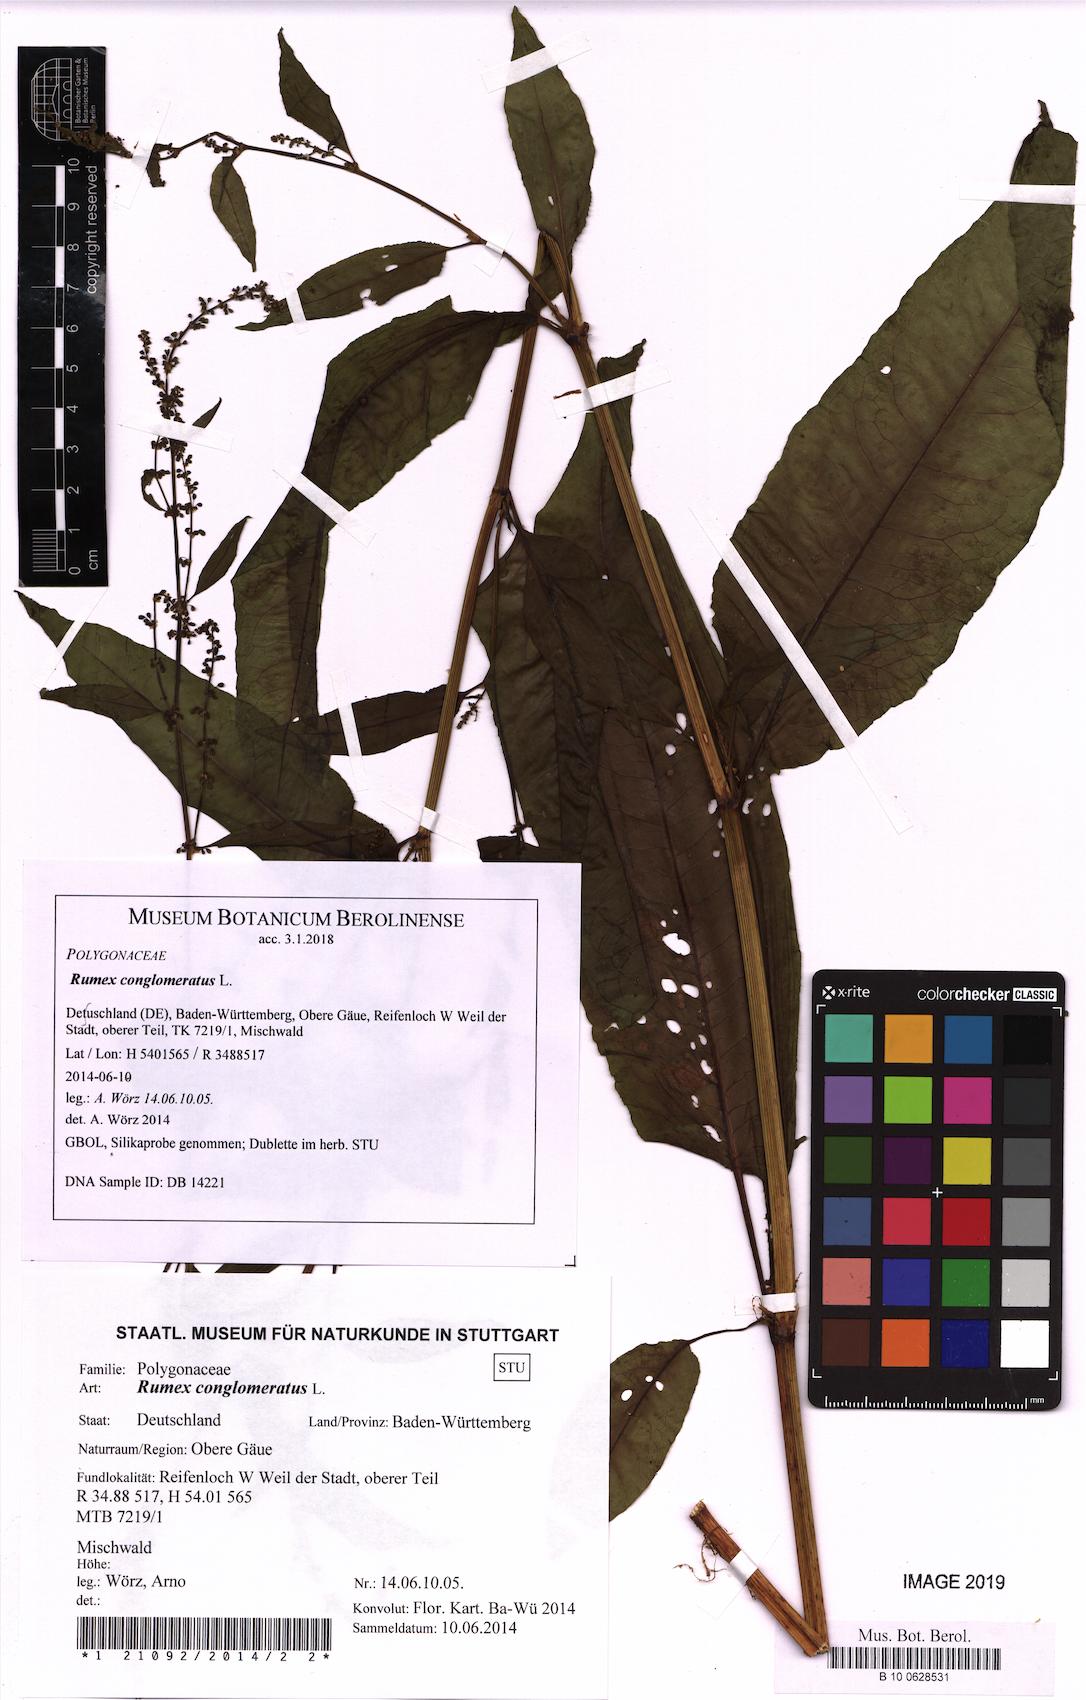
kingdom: Plantae
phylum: Tracheophyta
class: Magnoliopsida
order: Caryophyllales
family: Polygonaceae
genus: Rumex
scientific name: Rumex conglomeratus
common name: Clustered dock
